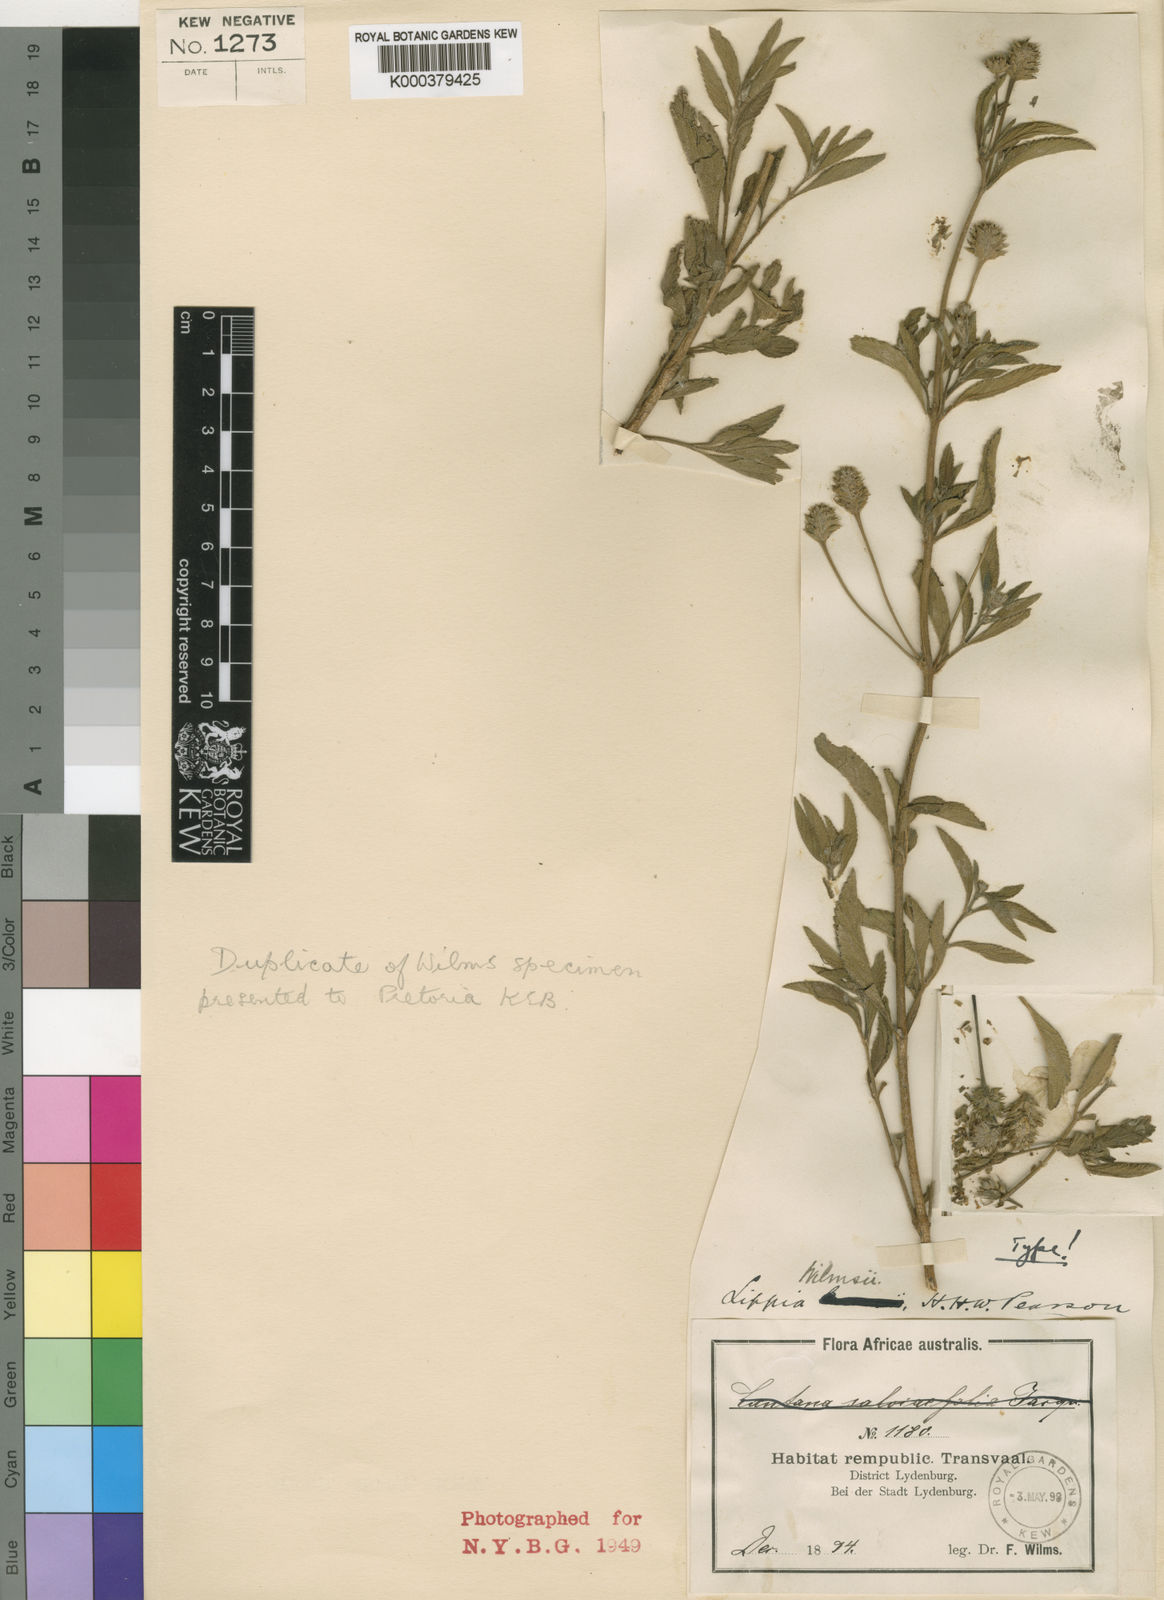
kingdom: Plantae
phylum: Tracheophyta
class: Magnoliopsida
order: Lamiales
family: Verbenaceae
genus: Lippia
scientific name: Lippia rehmannii
